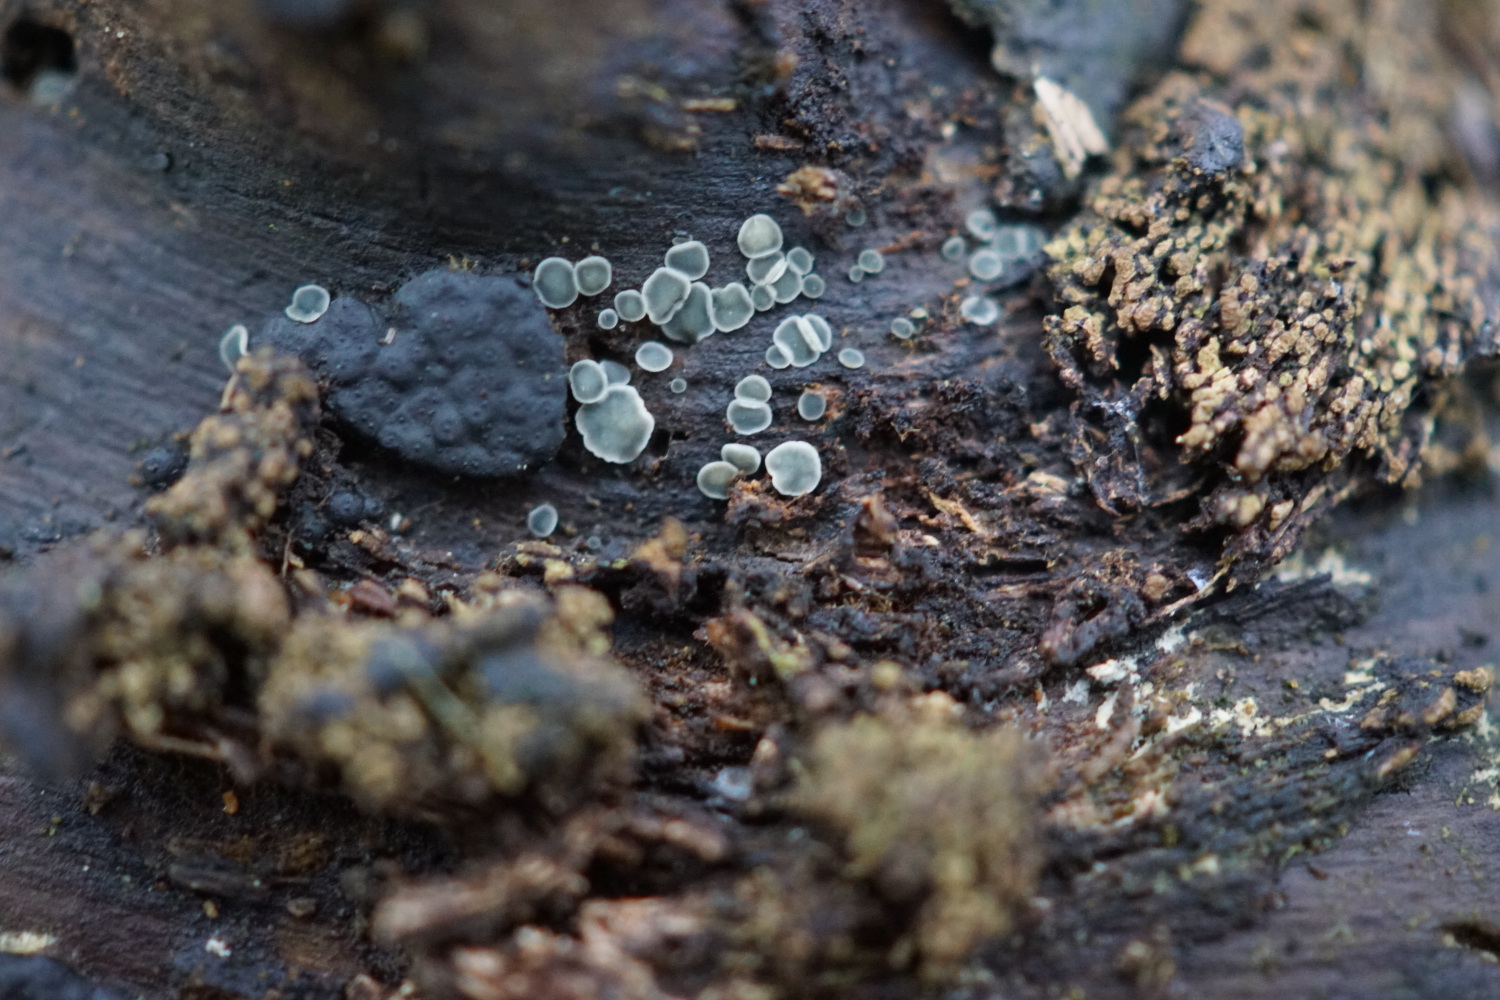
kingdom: Fungi
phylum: Ascomycota
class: Leotiomycetes
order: Helotiales
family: Mollisiaceae
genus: Mollisia
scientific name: Mollisia cinerea
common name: almindelig gråskive
